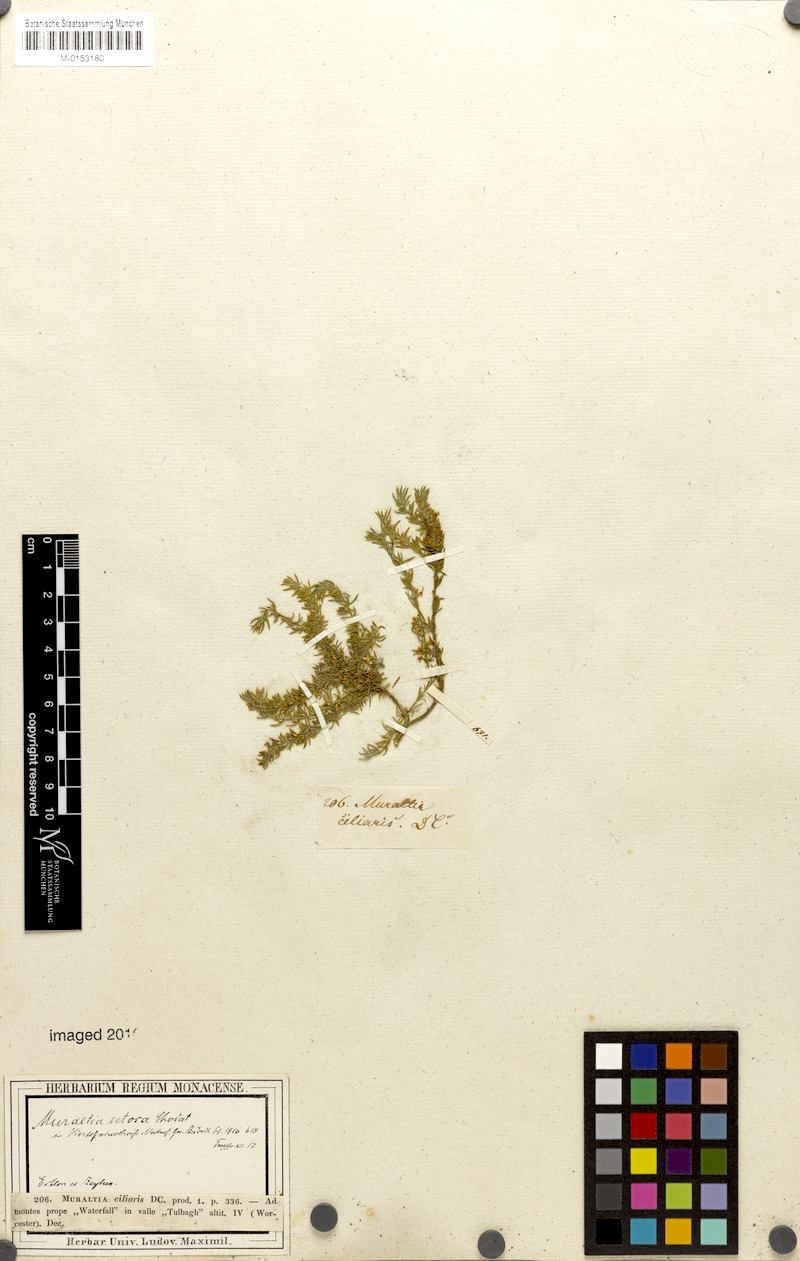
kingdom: Plantae
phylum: Tracheophyta
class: Magnoliopsida
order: Fabales
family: Polygalaceae
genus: Muraltia
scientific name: Muraltia ciliaris
